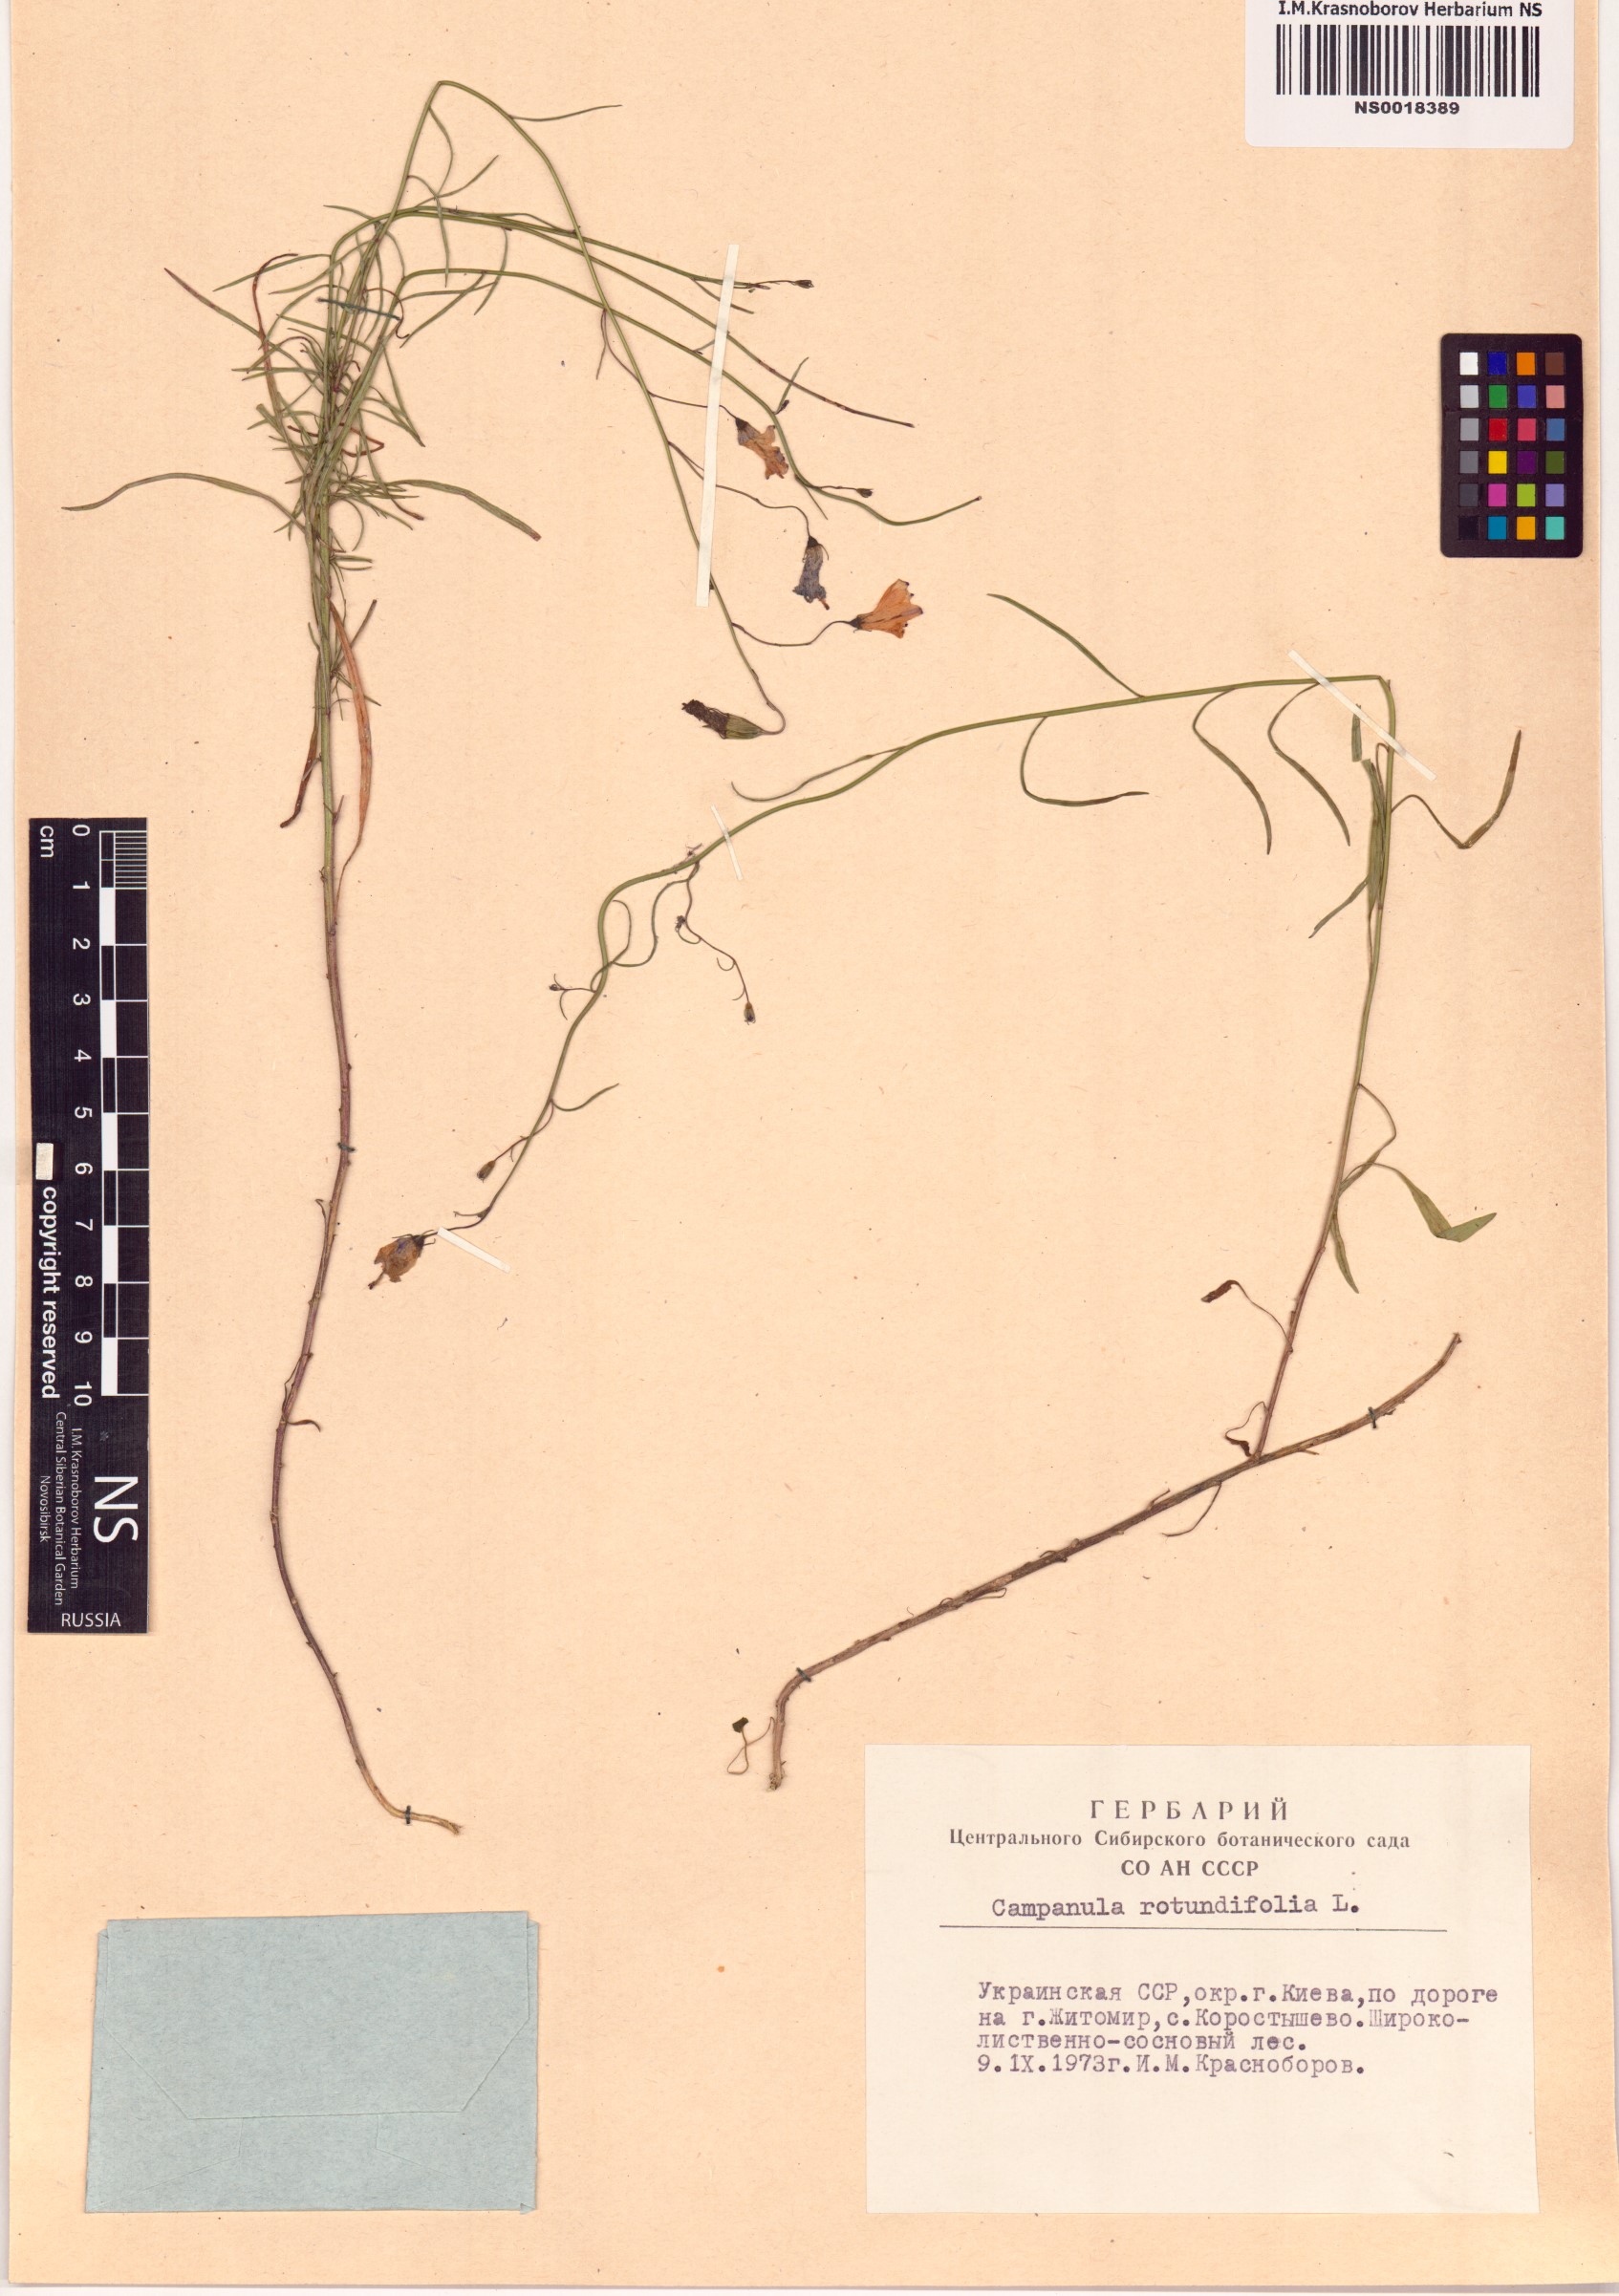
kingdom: Plantae
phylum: Tracheophyta
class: Magnoliopsida
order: Asterales
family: Campanulaceae
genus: Campanula
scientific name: Campanula rotundifolia
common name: Harebell
